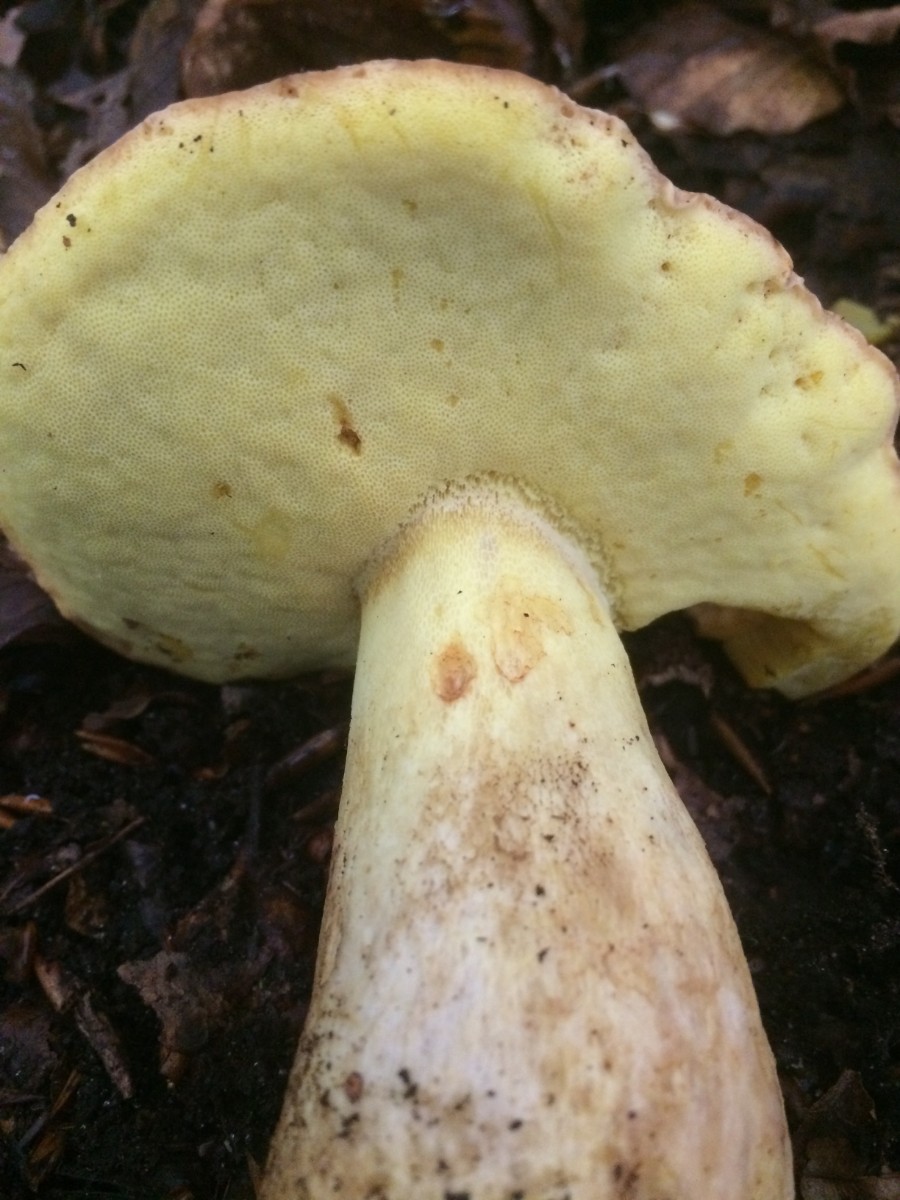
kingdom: Fungi
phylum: Basidiomycota
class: Agaricomycetes
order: Boletales
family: Boletaceae
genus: Butyriboletus
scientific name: Butyriboletus appendiculatus
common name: tenstokket rørhat
